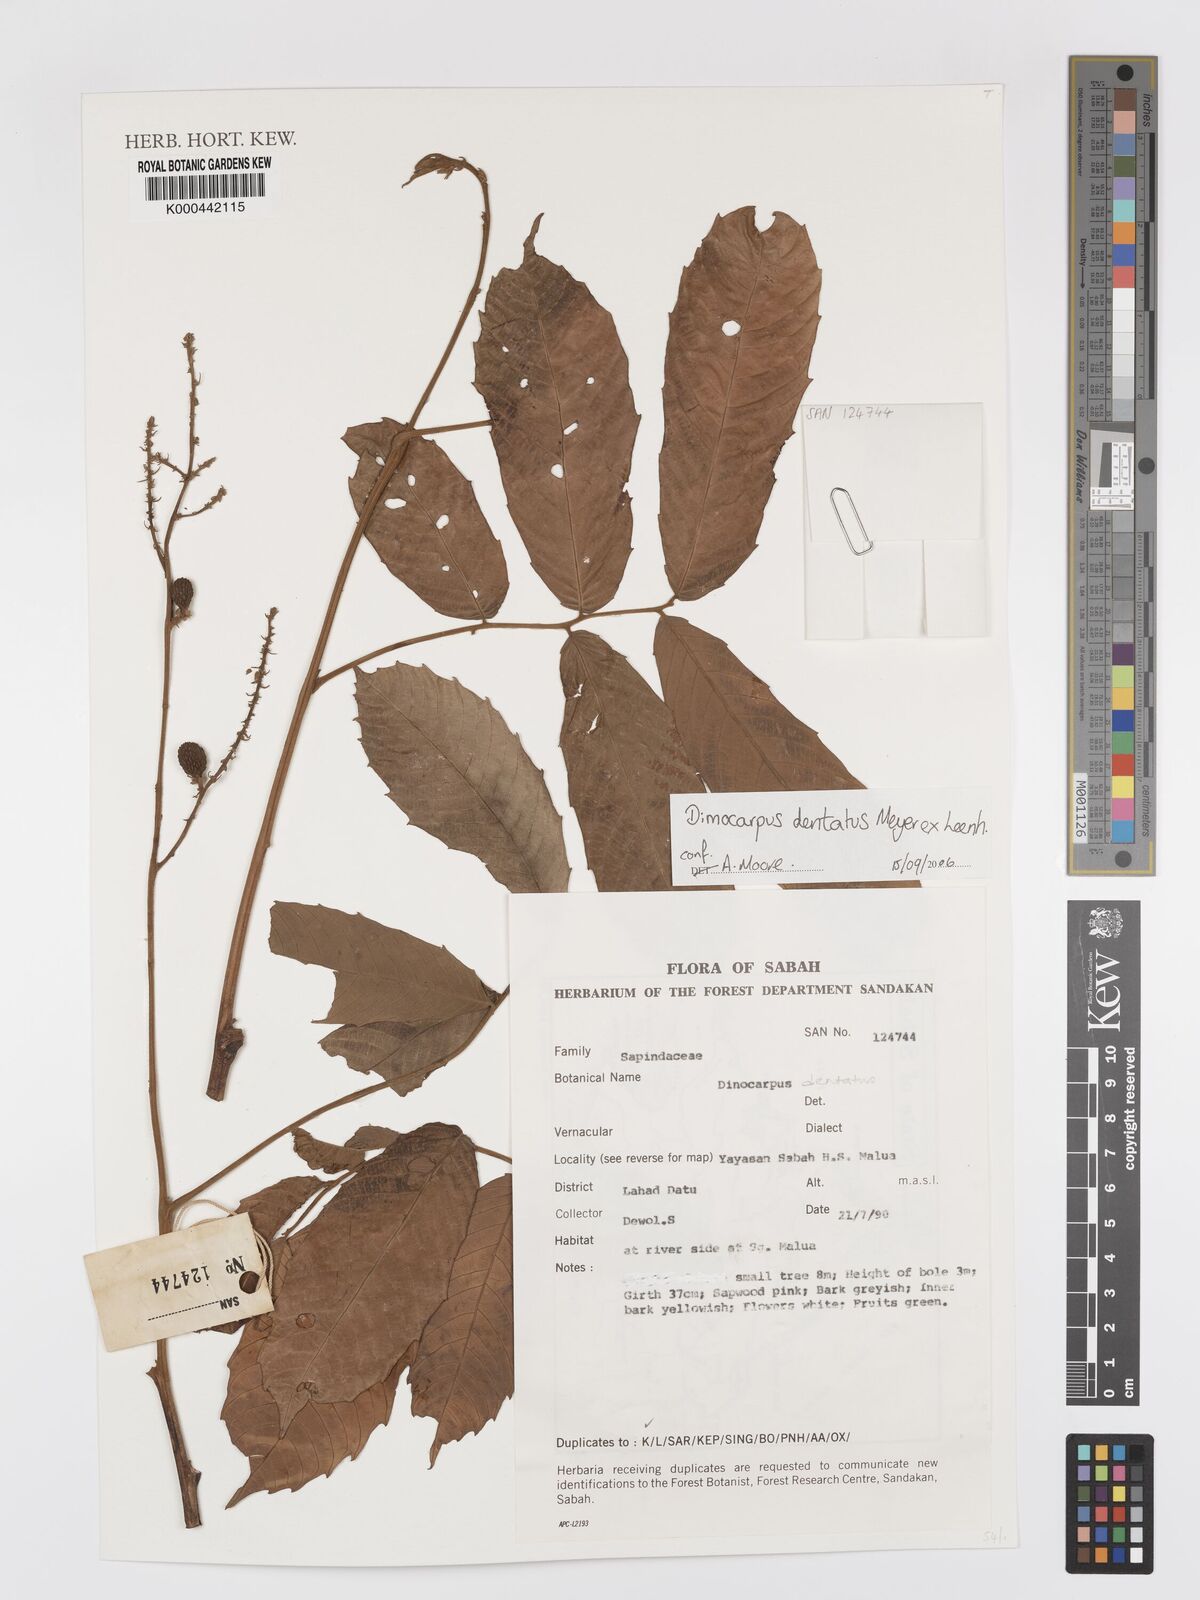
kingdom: Plantae
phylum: Tracheophyta
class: Magnoliopsida
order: Sapindales
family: Sapindaceae
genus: Harpullia
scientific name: Harpullia arborea
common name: Tulip-wood tree
